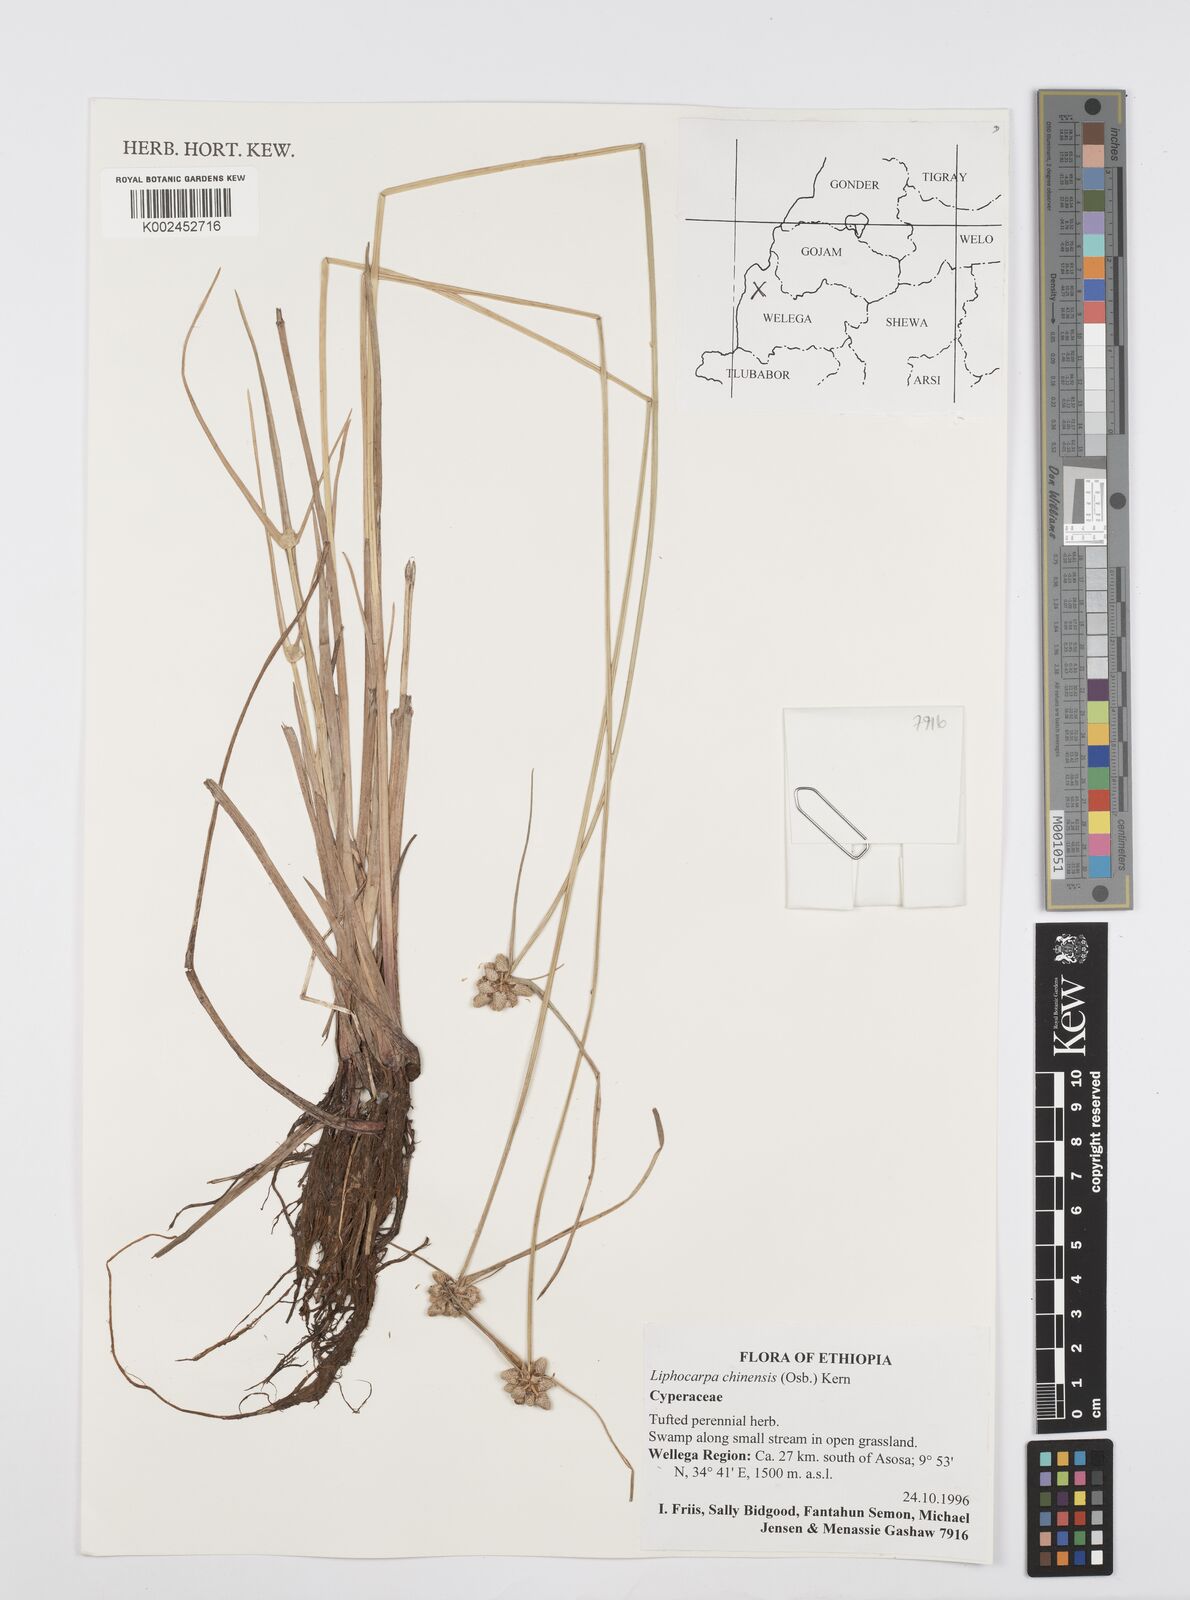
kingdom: Plantae
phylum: Tracheophyta
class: Liliopsida
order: Poales
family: Cyperaceae
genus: Cyperus
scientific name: Cyperus albescens
